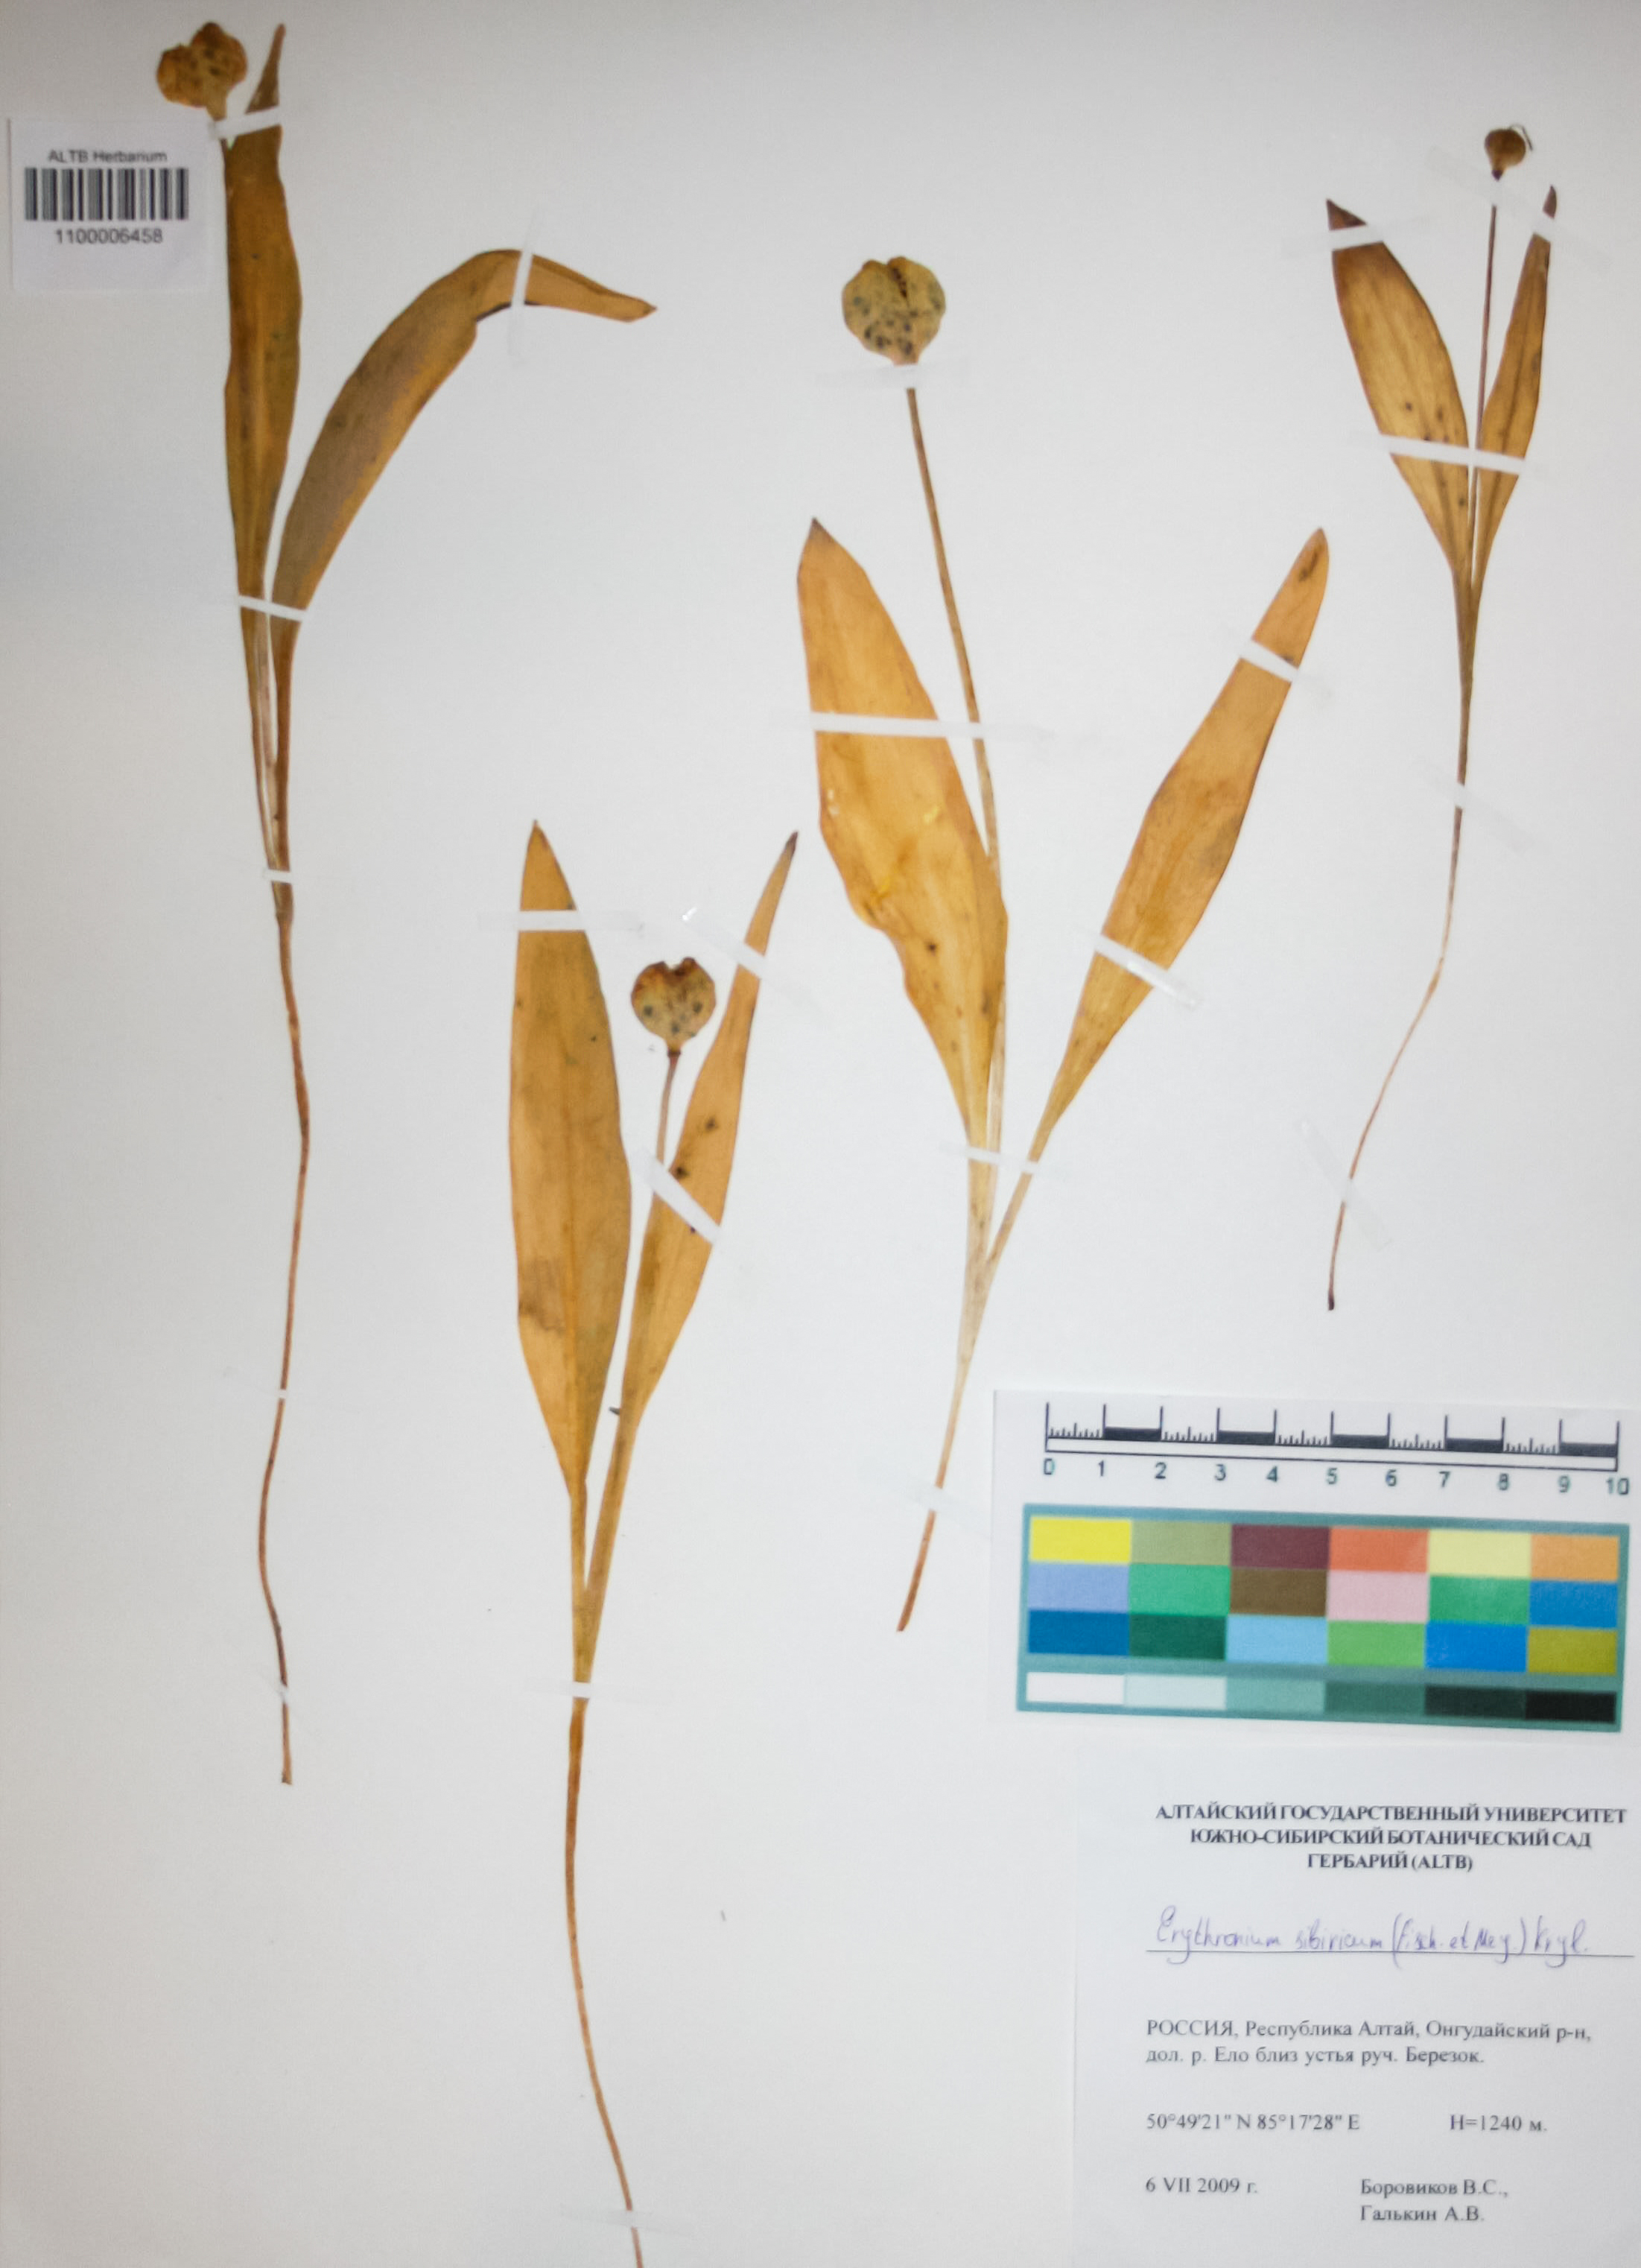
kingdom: Plantae
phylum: Tracheophyta
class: Liliopsida
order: Liliales
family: Liliaceae
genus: Erythronium
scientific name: Erythronium sibiricum
